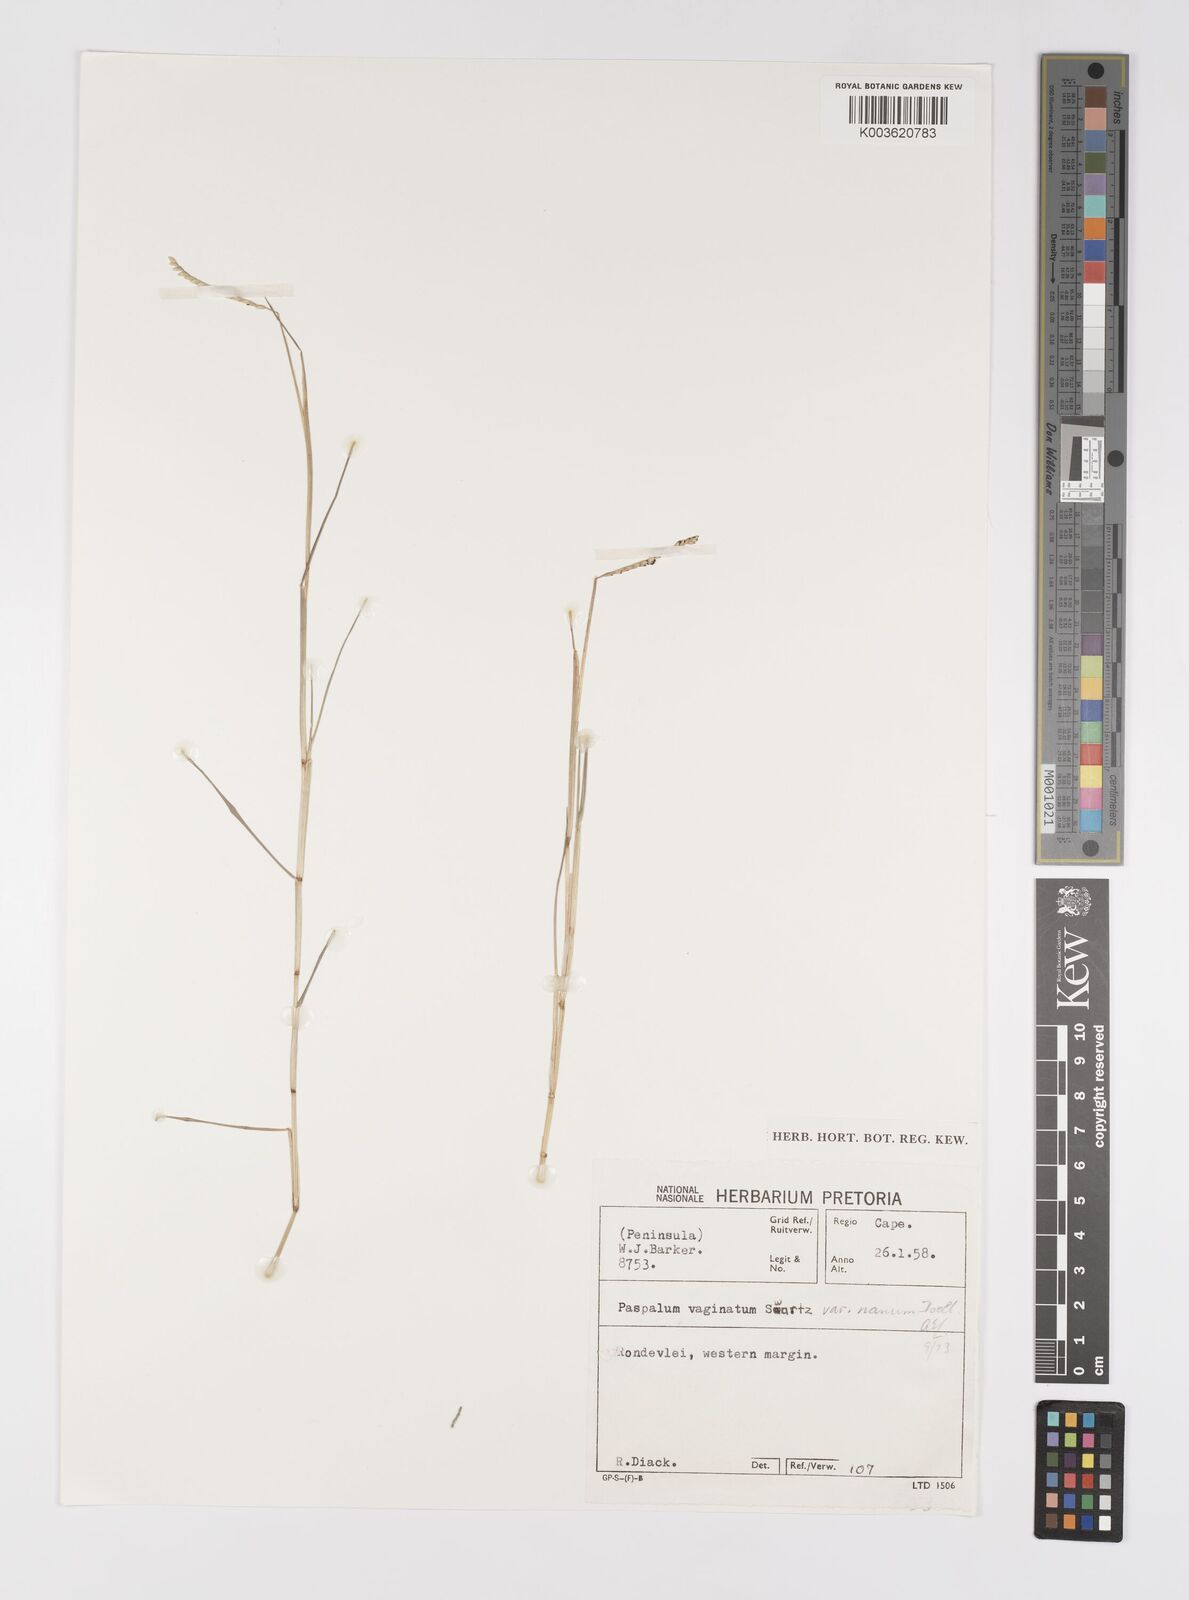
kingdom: Plantae
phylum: Tracheophyta
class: Liliopsida
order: Poales
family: Poaceae
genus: Paspalum
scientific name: Paspalum vaginatum
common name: Seashore paspalum
